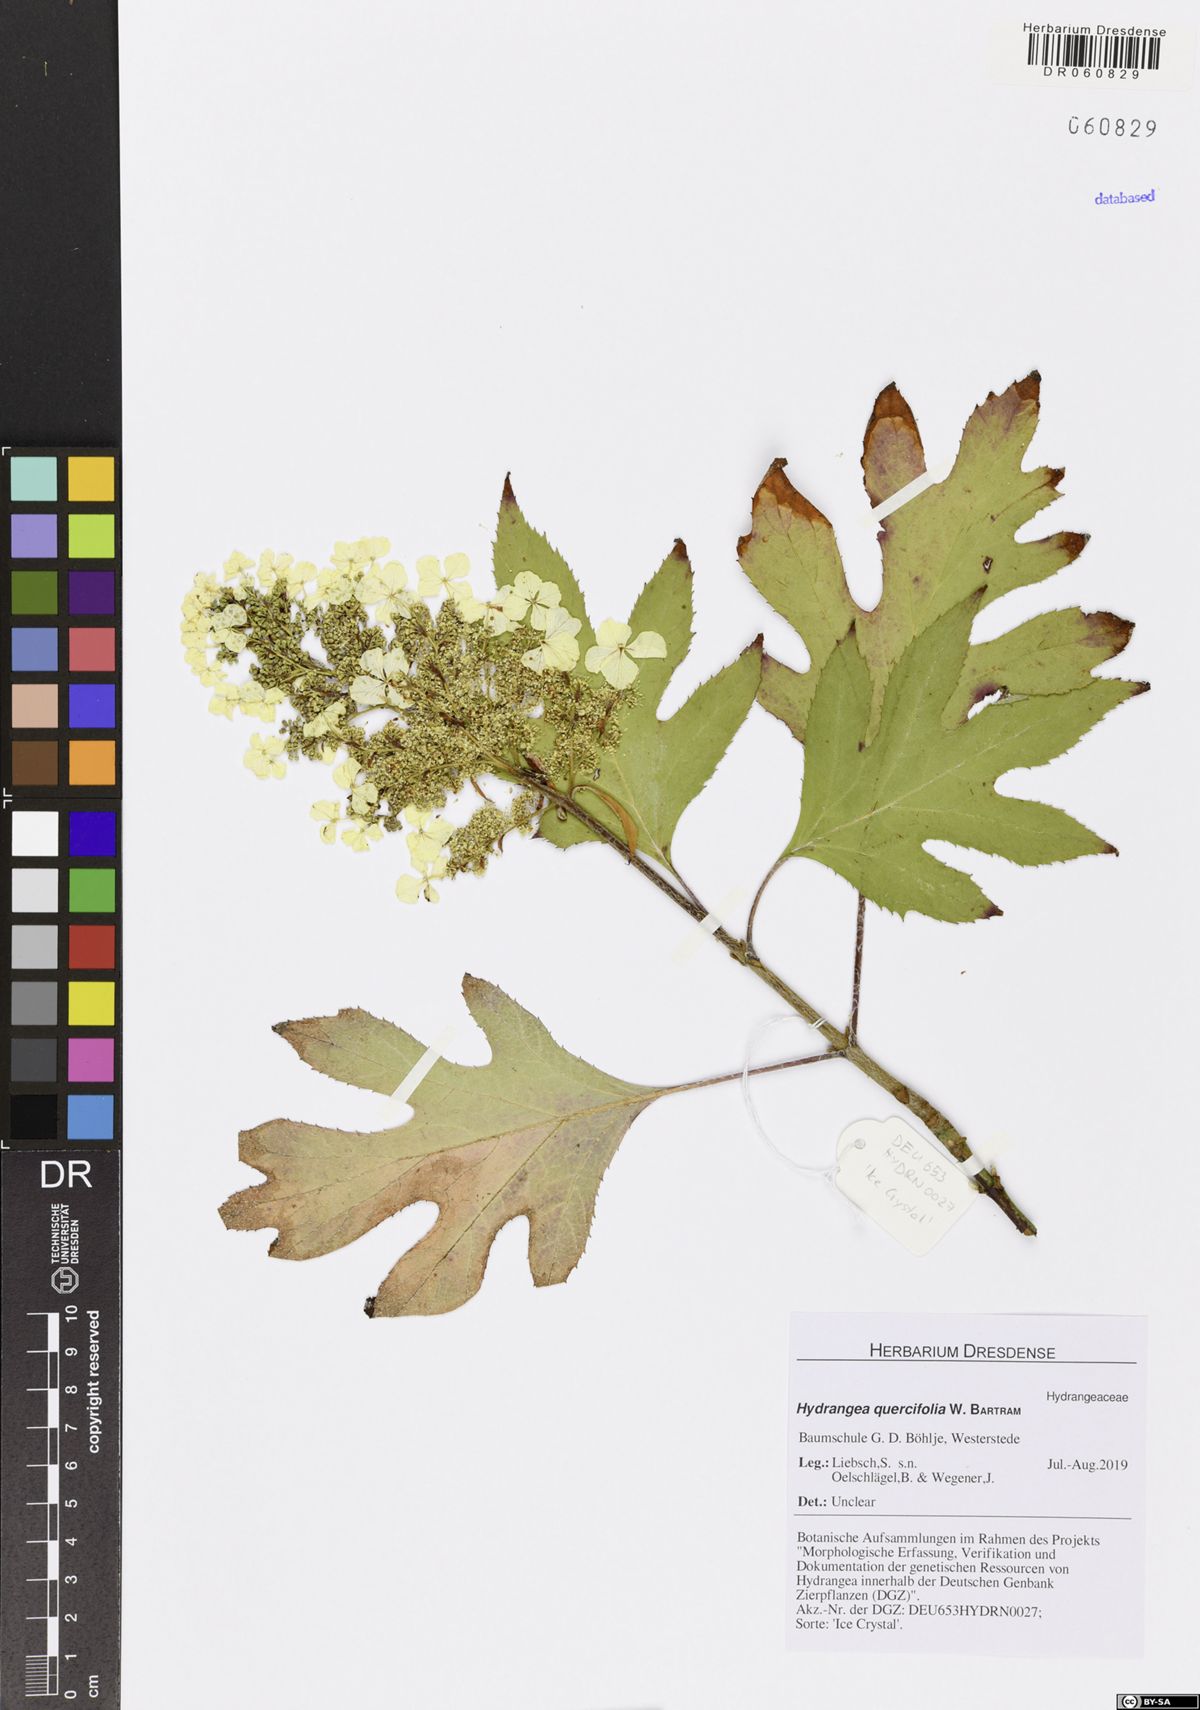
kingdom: Plantae
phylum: Tracheophyta
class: Magnoliopsida
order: Cornales
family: Hydrangeaceae
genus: Hydrangea
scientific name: Hydrangea quercifolia
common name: Oak-leaf hydrangea
